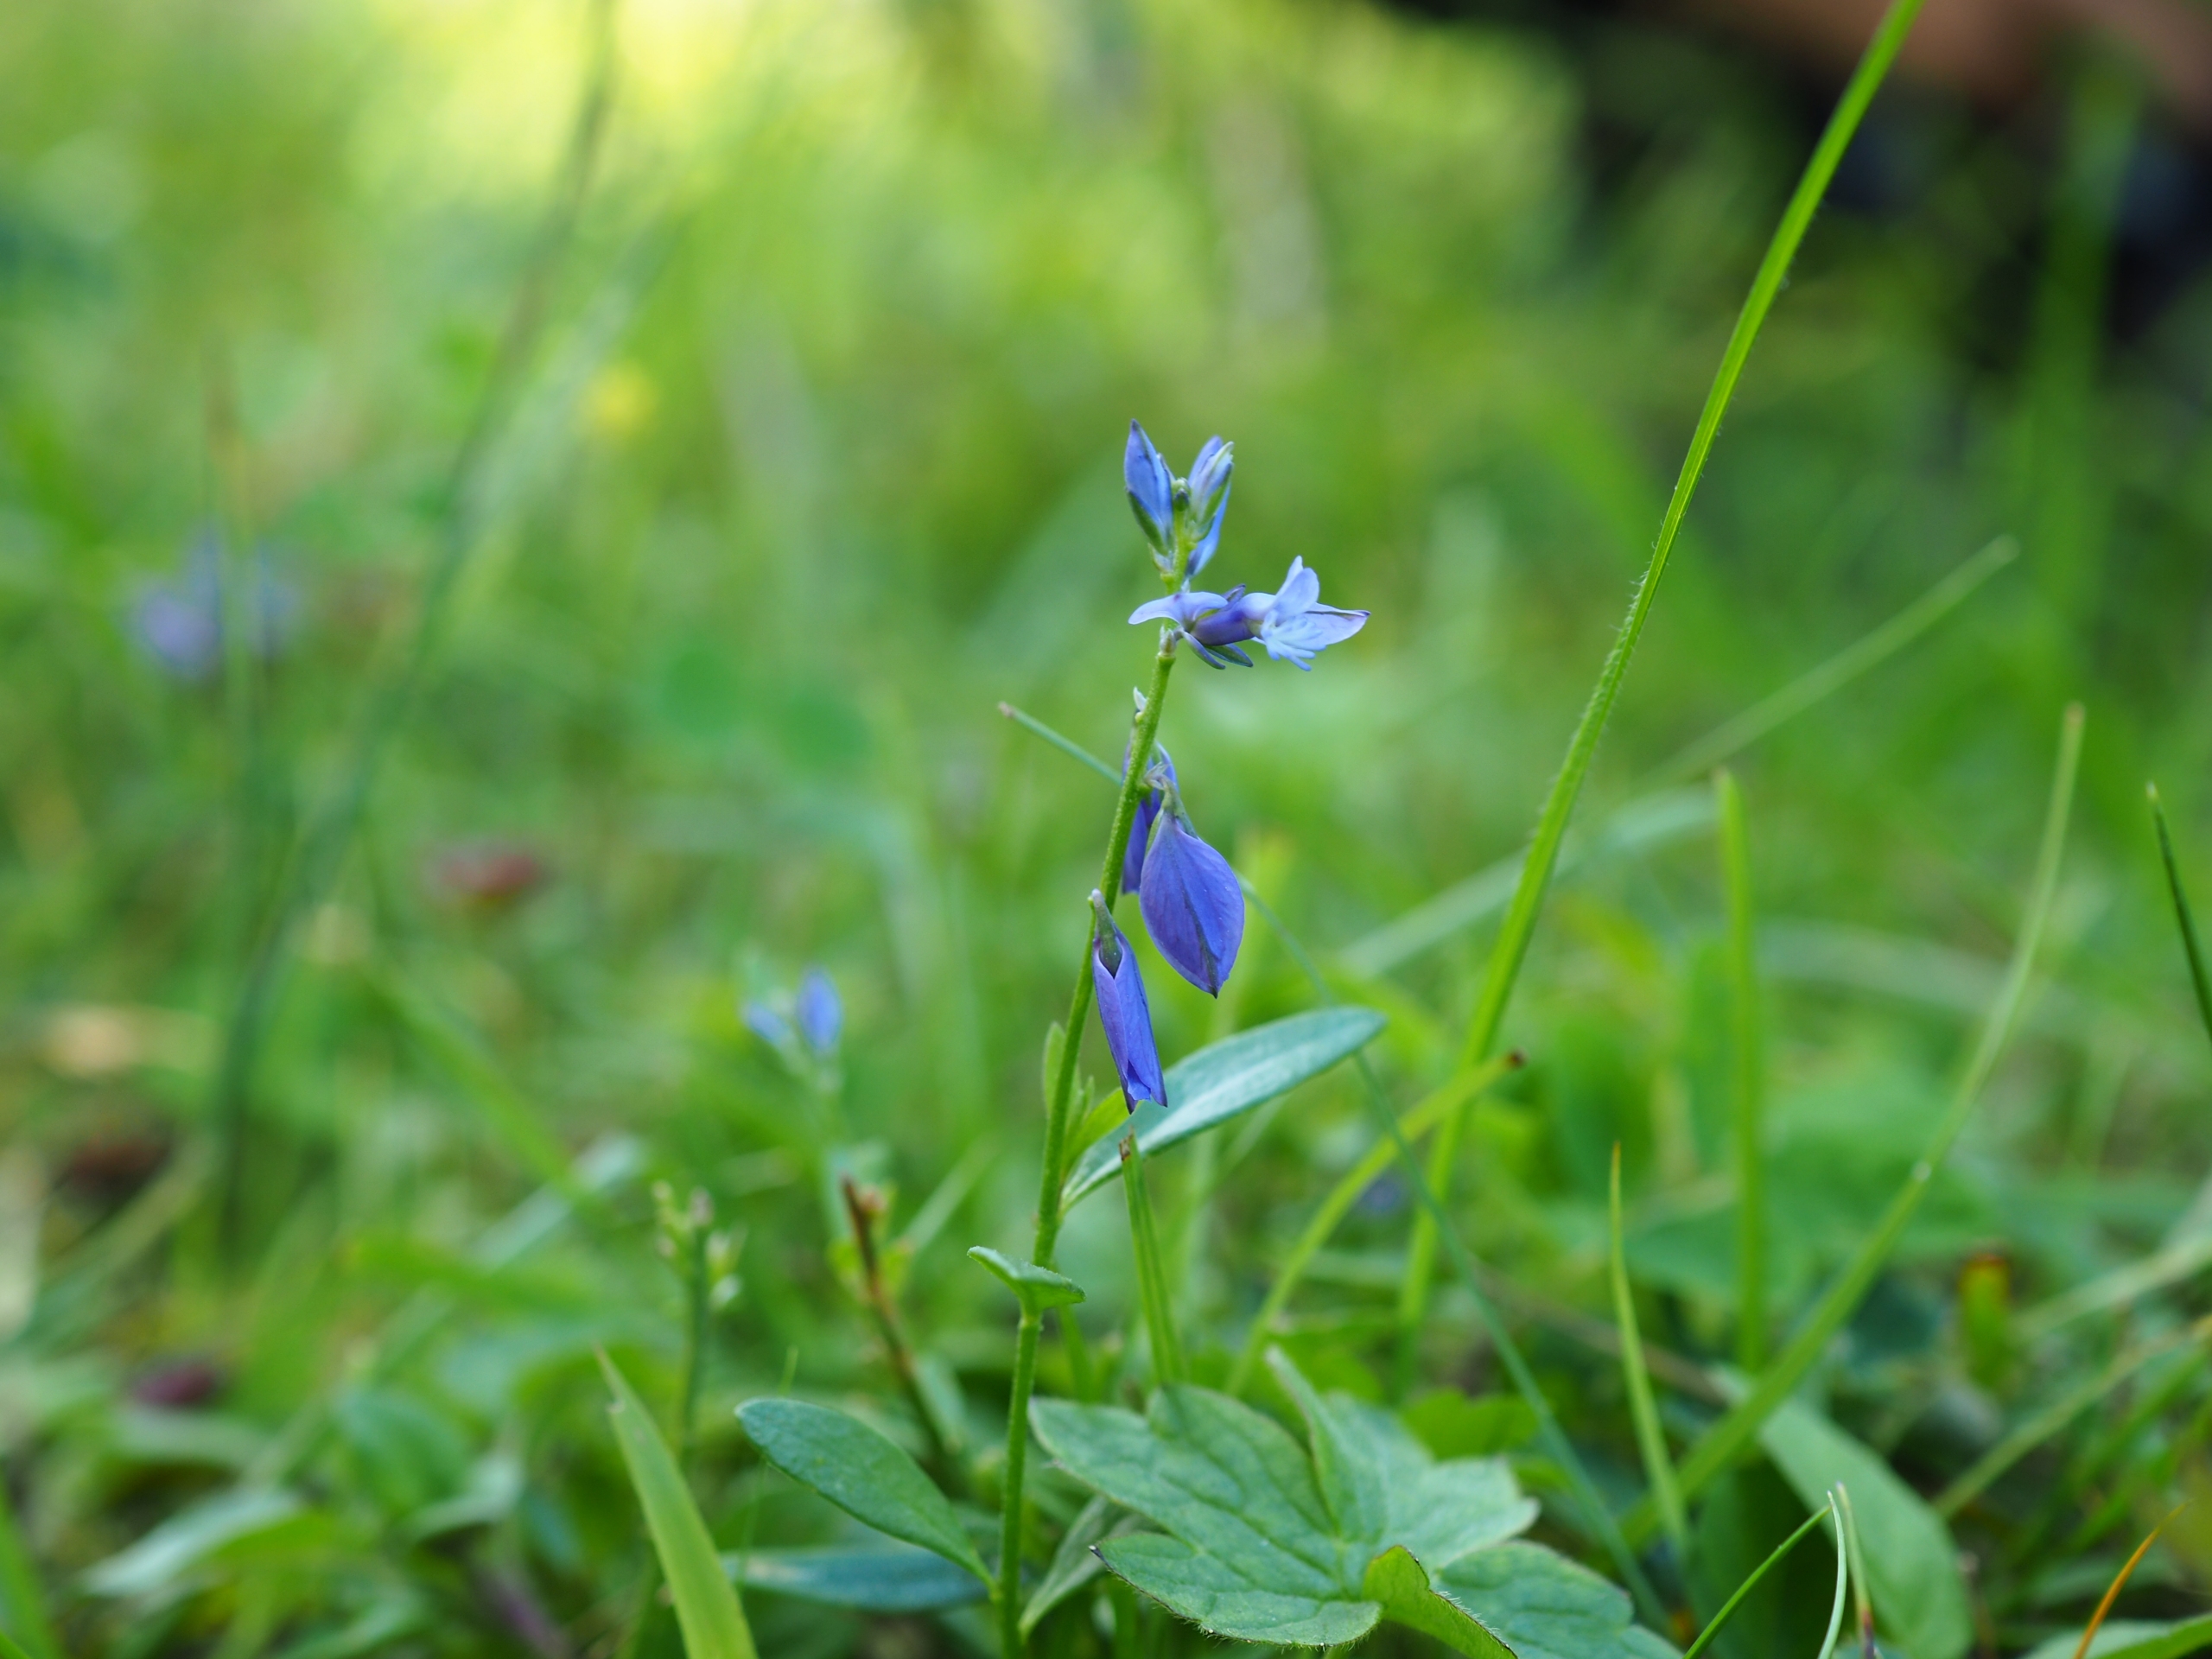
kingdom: Plantae
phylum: Tracheophyta
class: Magnoliopsida
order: Fabales
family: Polygalaceae
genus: Polygala
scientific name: Polygala vulgaris
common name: Almindelig mælkeurt
